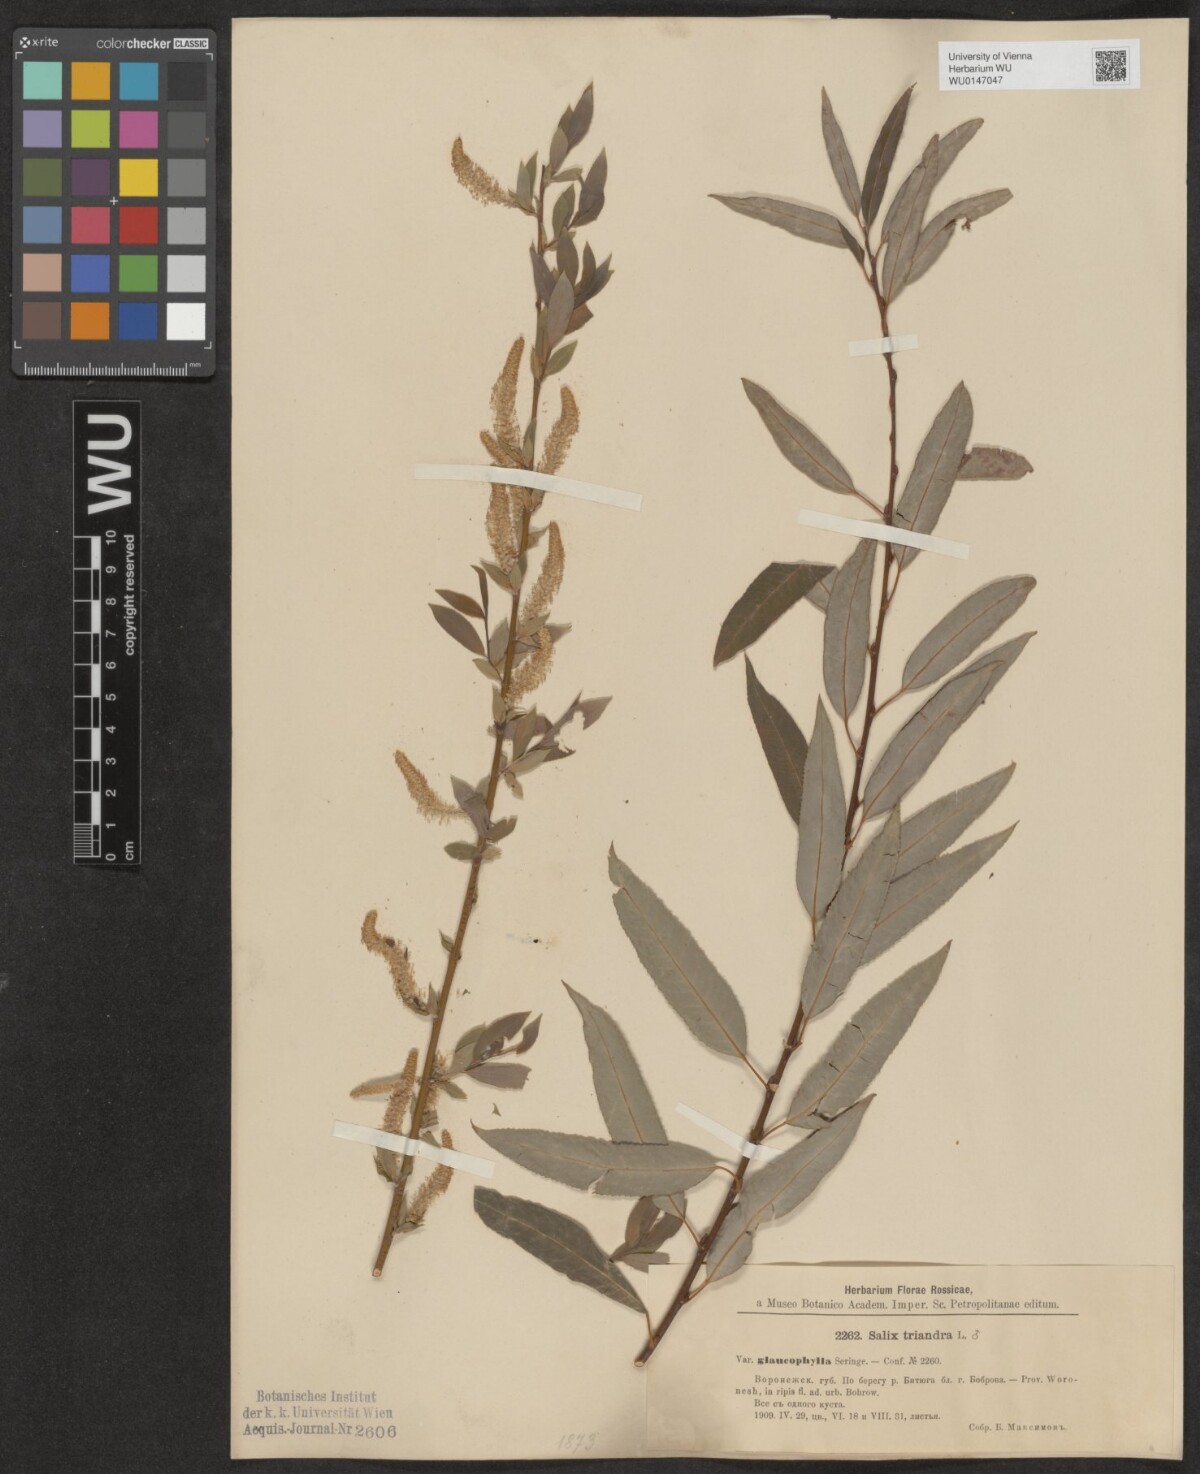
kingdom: Plantae
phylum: Tracheophyta
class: Magnoliopsida
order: Malpighiales
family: Salicaceae
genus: Salix
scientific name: Salix triandra
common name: Almond willow
